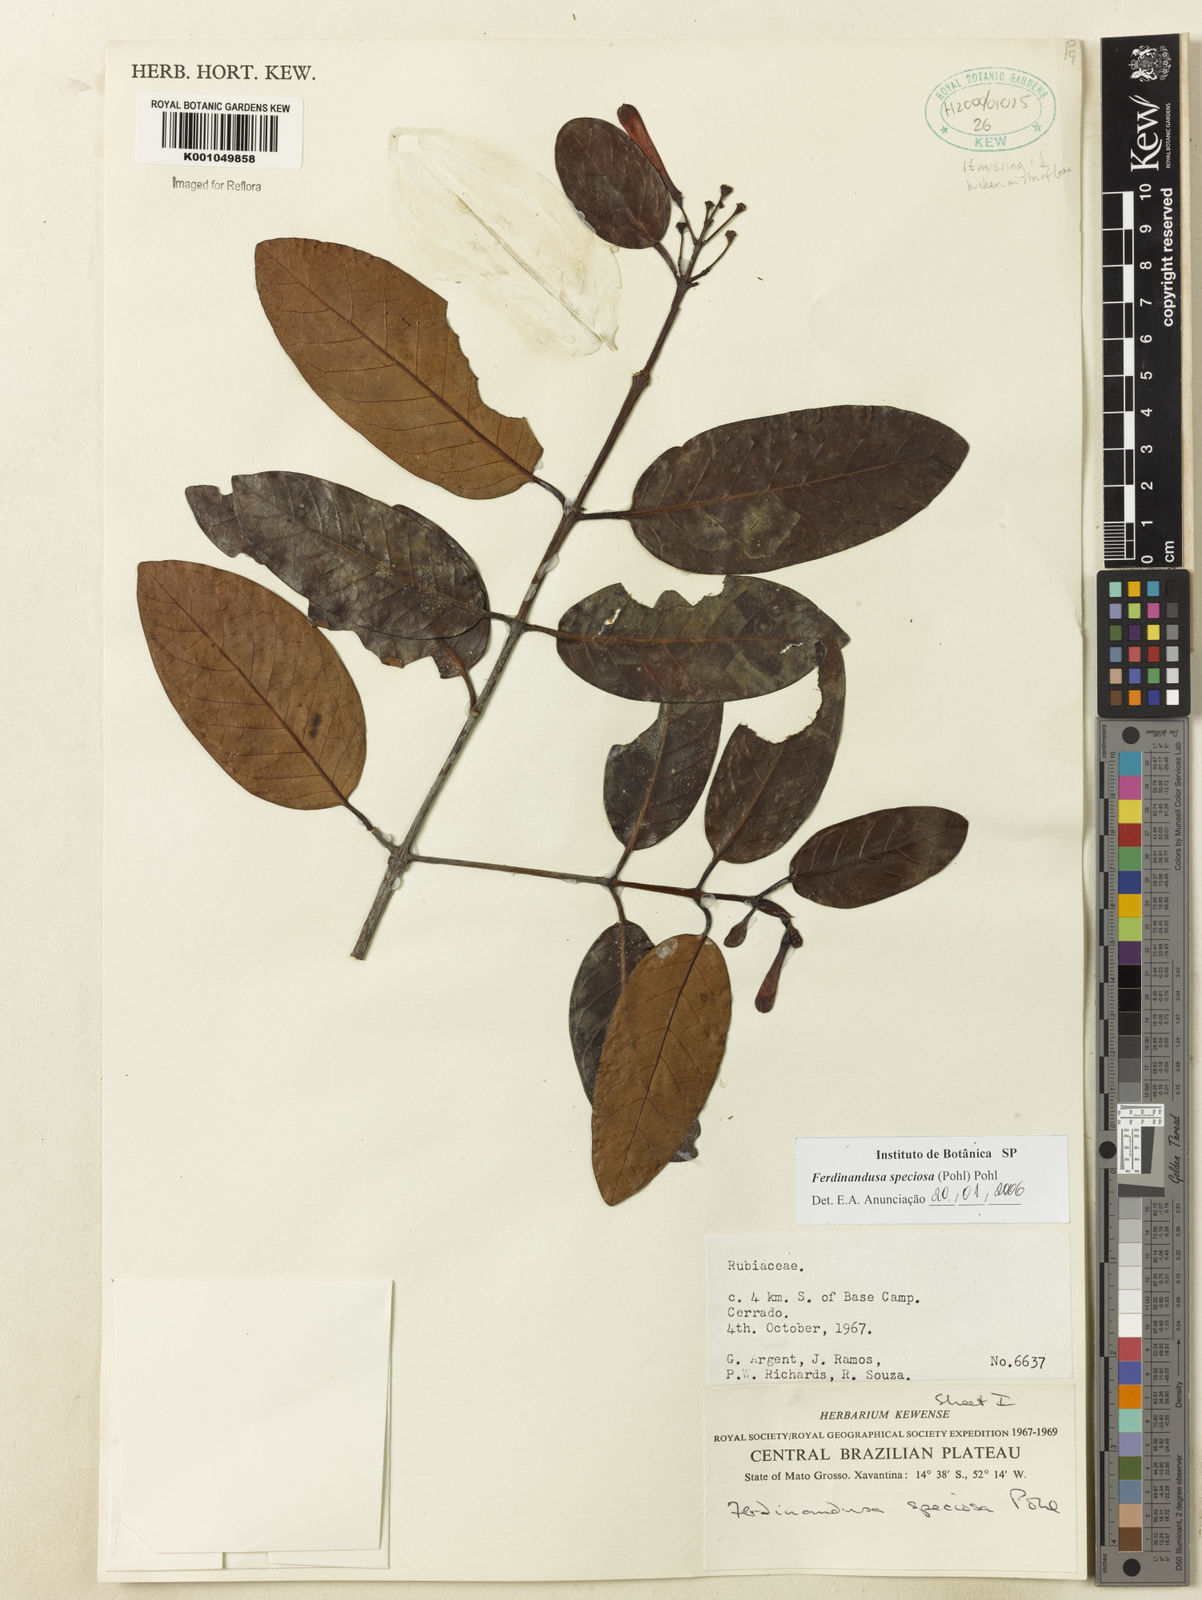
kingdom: Plantae
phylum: Tracheophyta
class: Magnoliopsida
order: Gentianales
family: Rubiaceae
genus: Ferdinandusa
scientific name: Ferdinandusa speciosa
